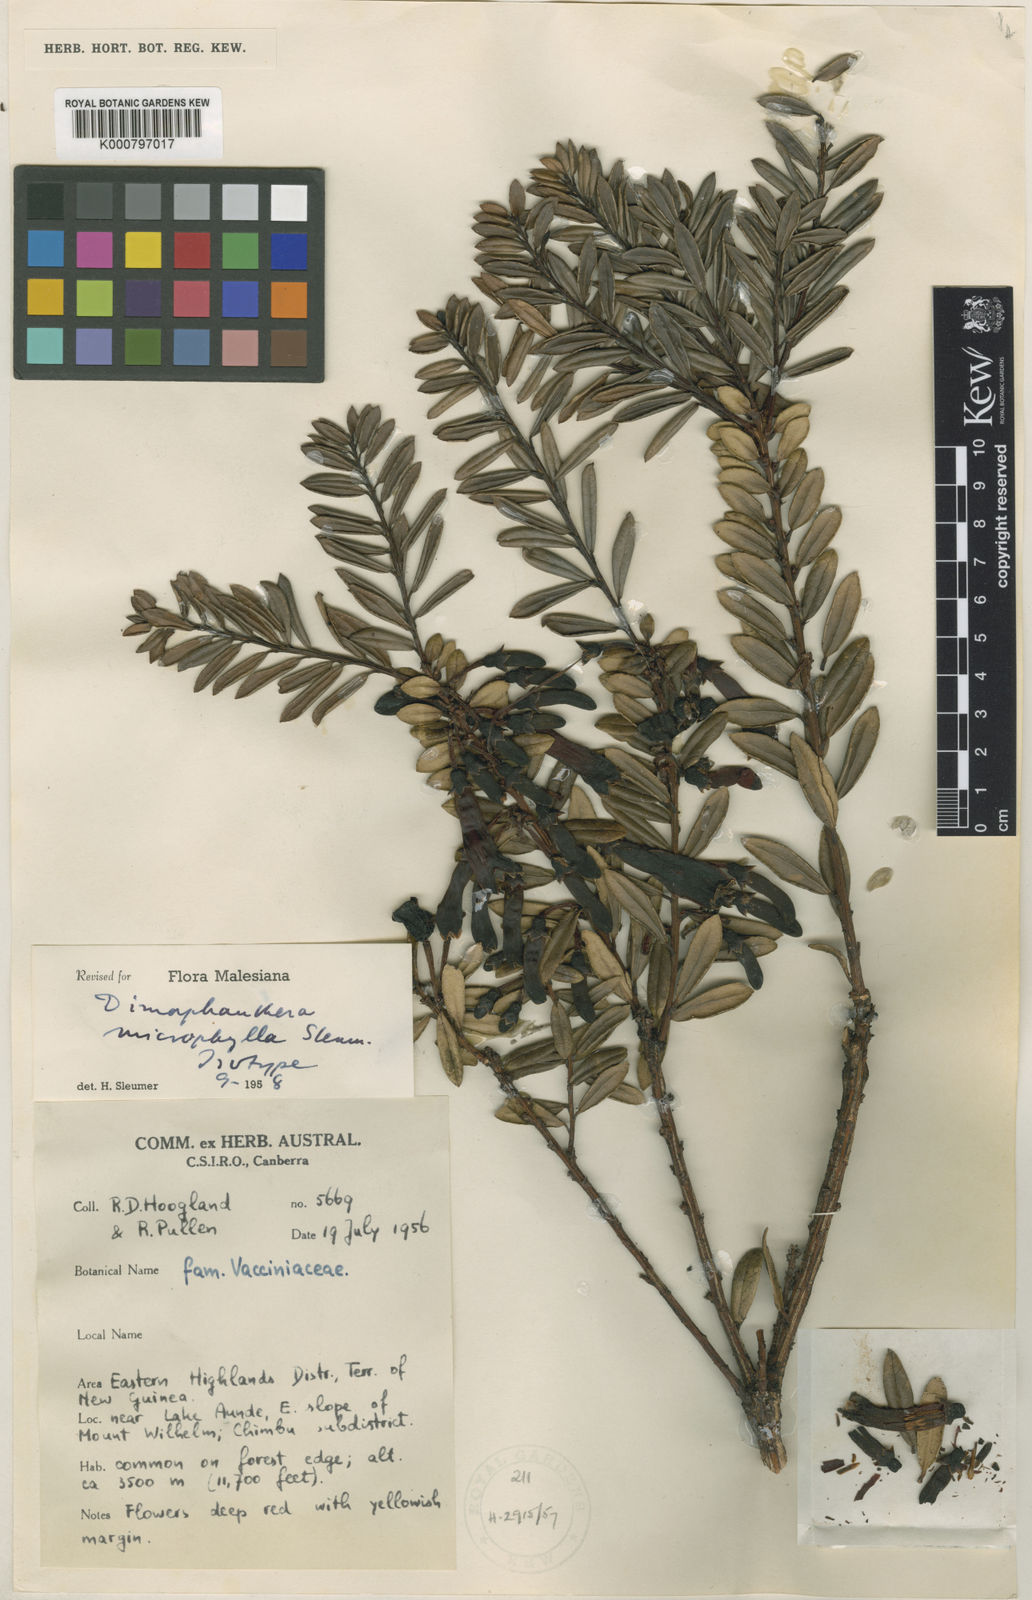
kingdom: Plantae
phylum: Tracheophyta
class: Magnoliopsida
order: Ericales
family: Ericaceae
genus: Dimorphanthera
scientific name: Dimorphanthera microphylla
